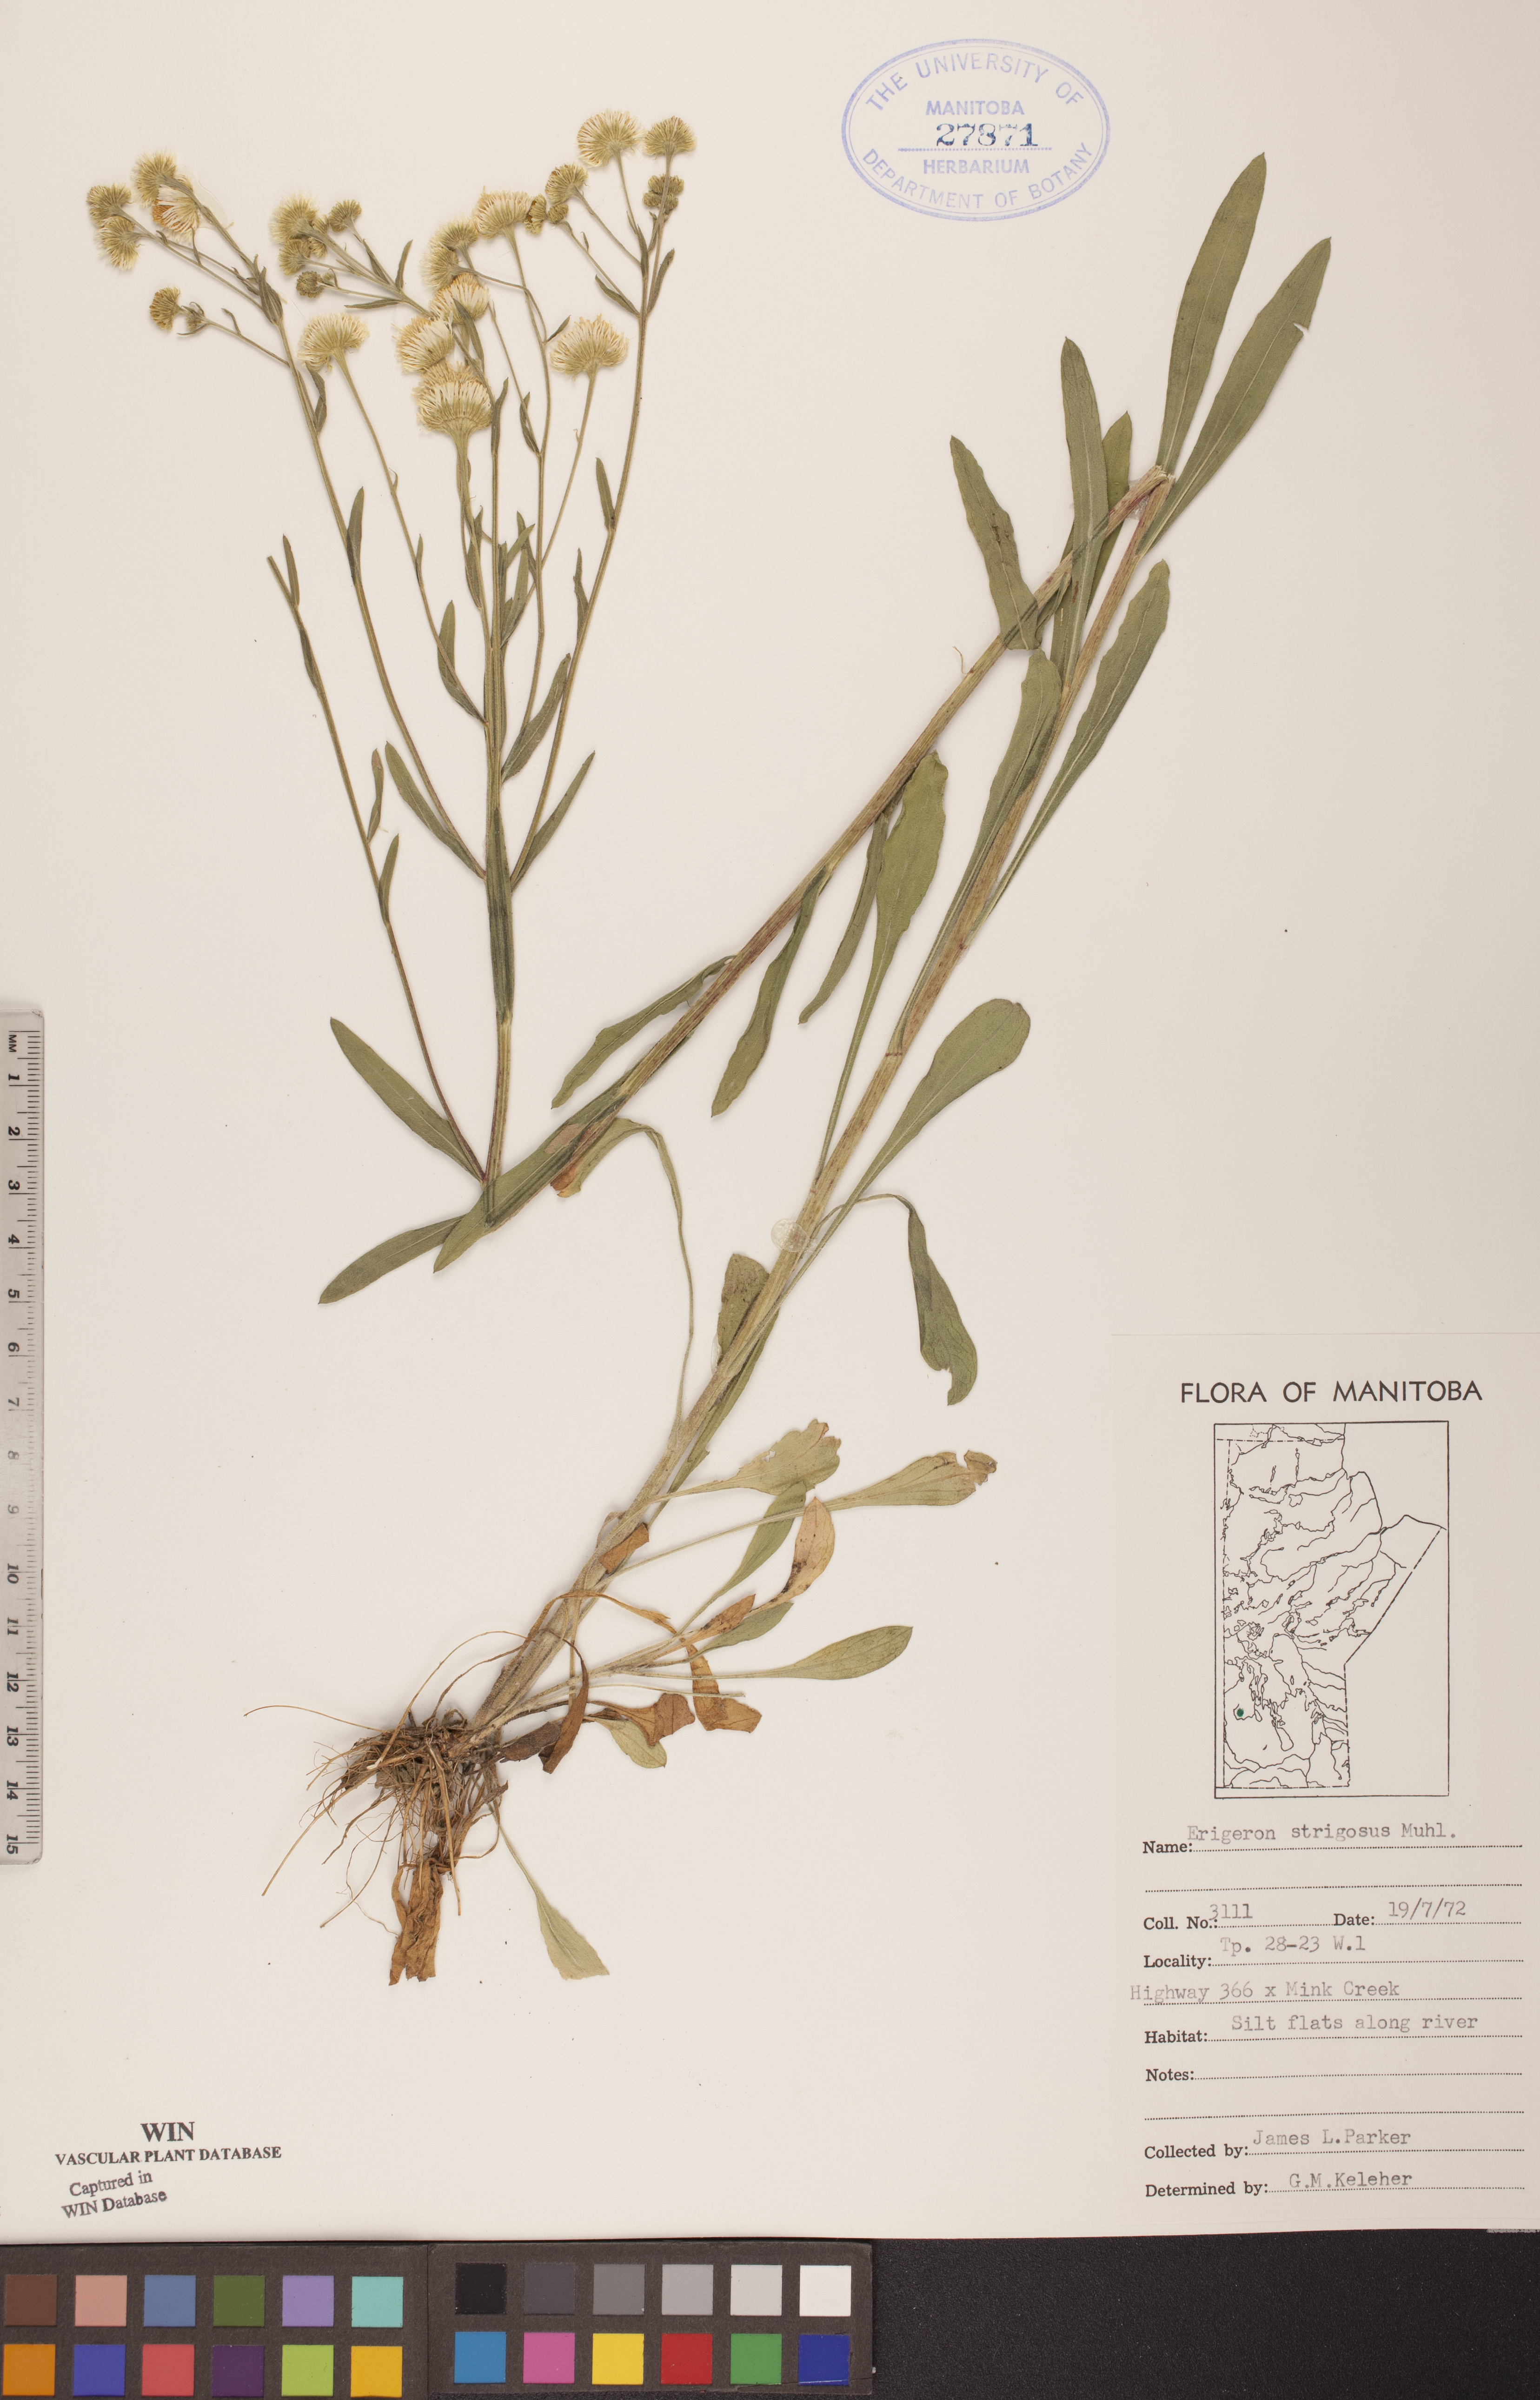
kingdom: Plantae
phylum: Tracheophyta
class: Magnoliopsida
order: Asterales
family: Asteraceae
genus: Erigeron
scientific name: Erigeron strigosus
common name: Common eastern fleabane
